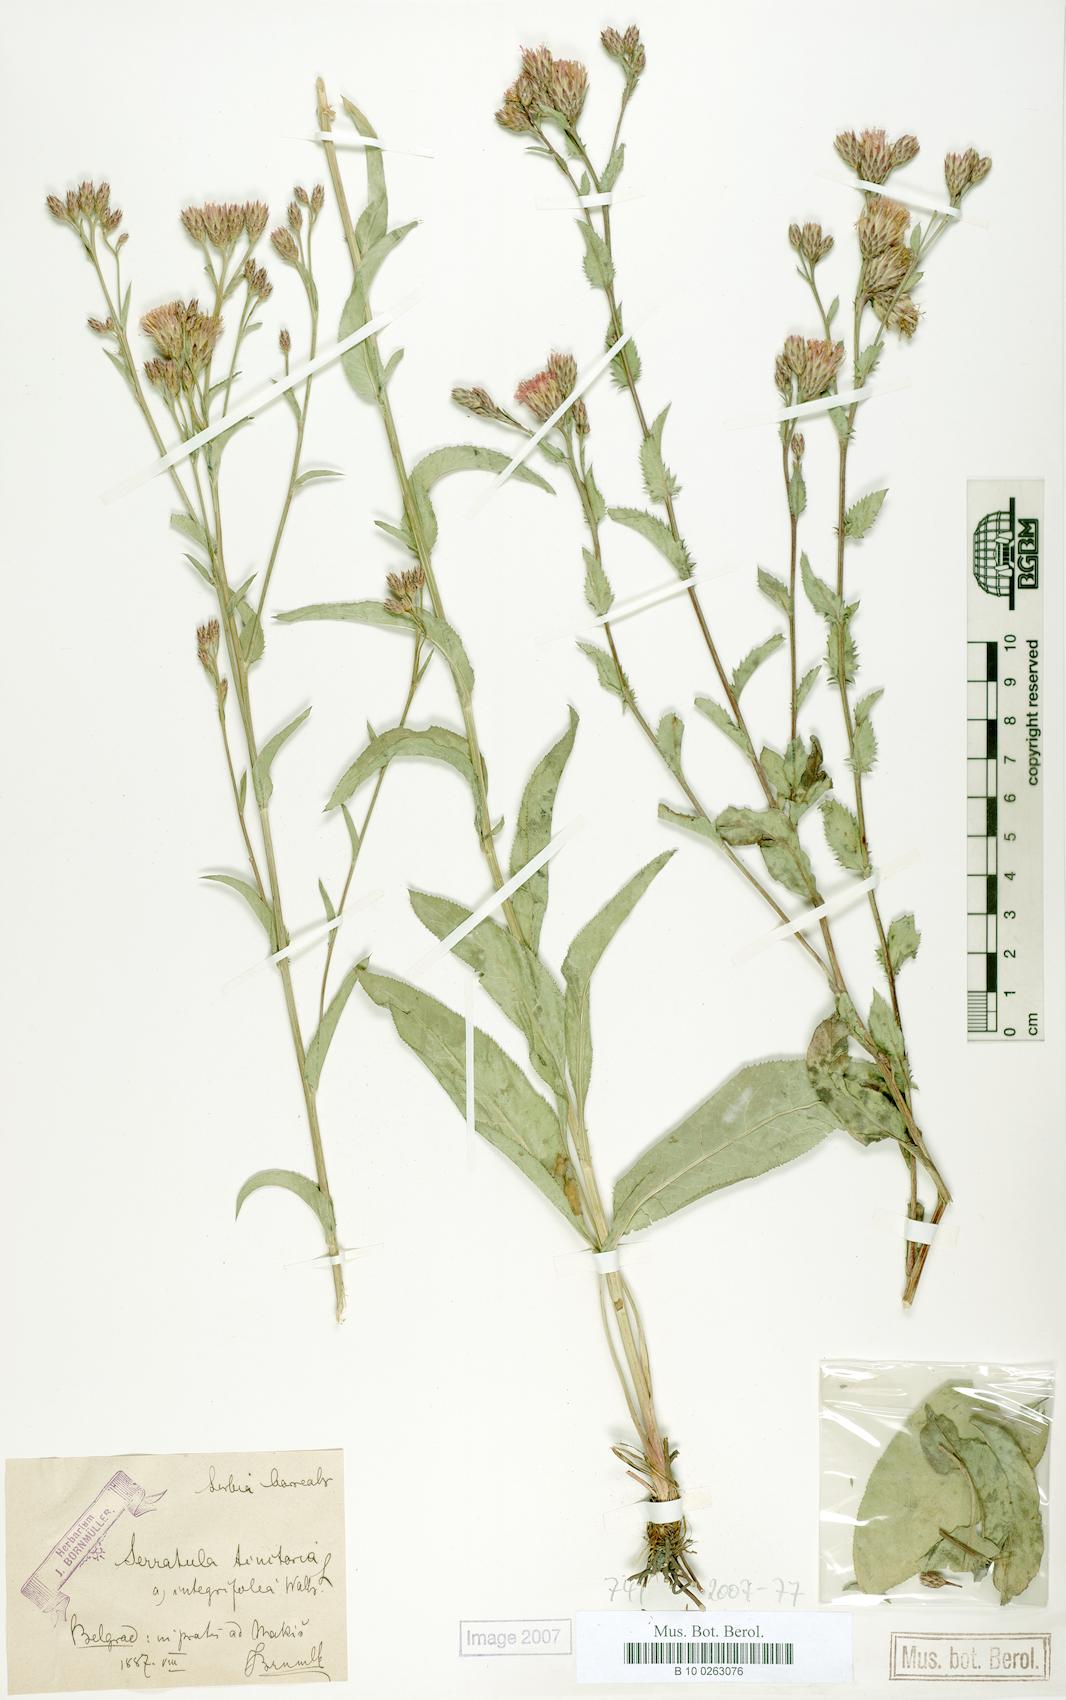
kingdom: Plantae
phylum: Tracheophyta
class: Magnoliopsida
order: Asterales
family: Asteraceae
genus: Serratula
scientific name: Serratula tinctoria
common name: Saw-wort
